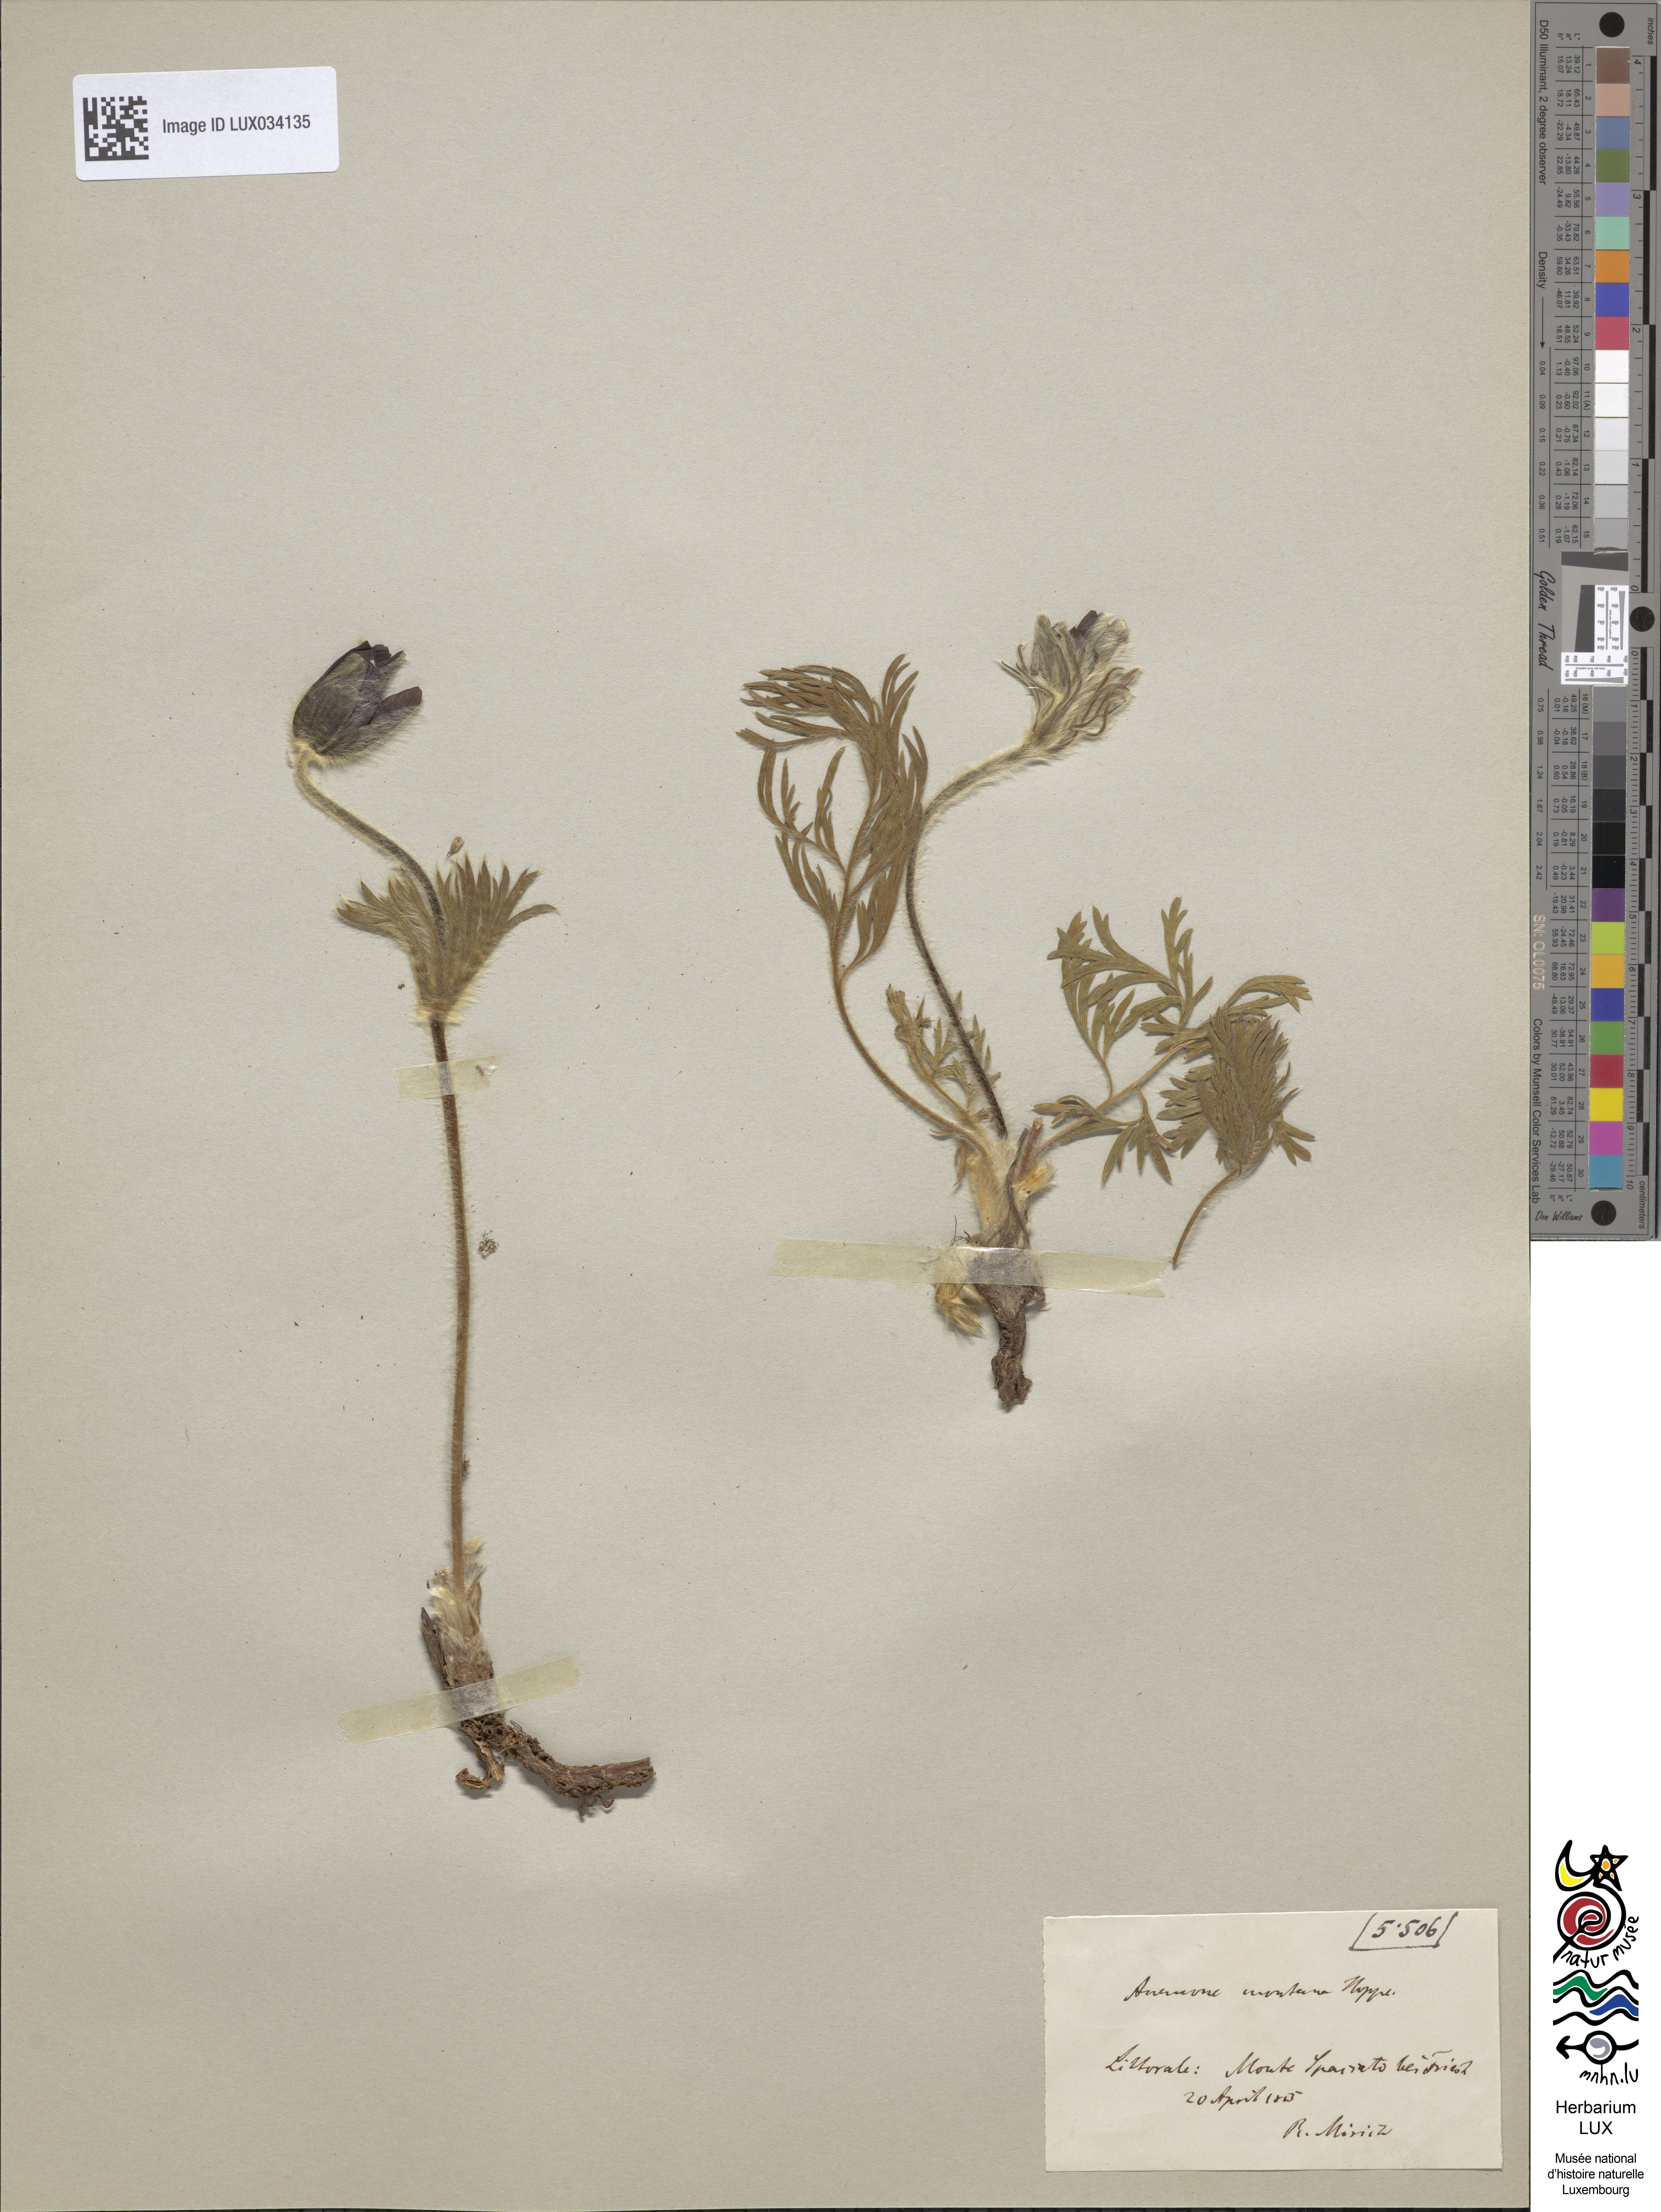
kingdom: Plantae
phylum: Tracheophyta
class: Magnoliopsida
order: Ranunculales
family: Ranunculaceae
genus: Pulsatilla
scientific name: Pulsatilla montana
